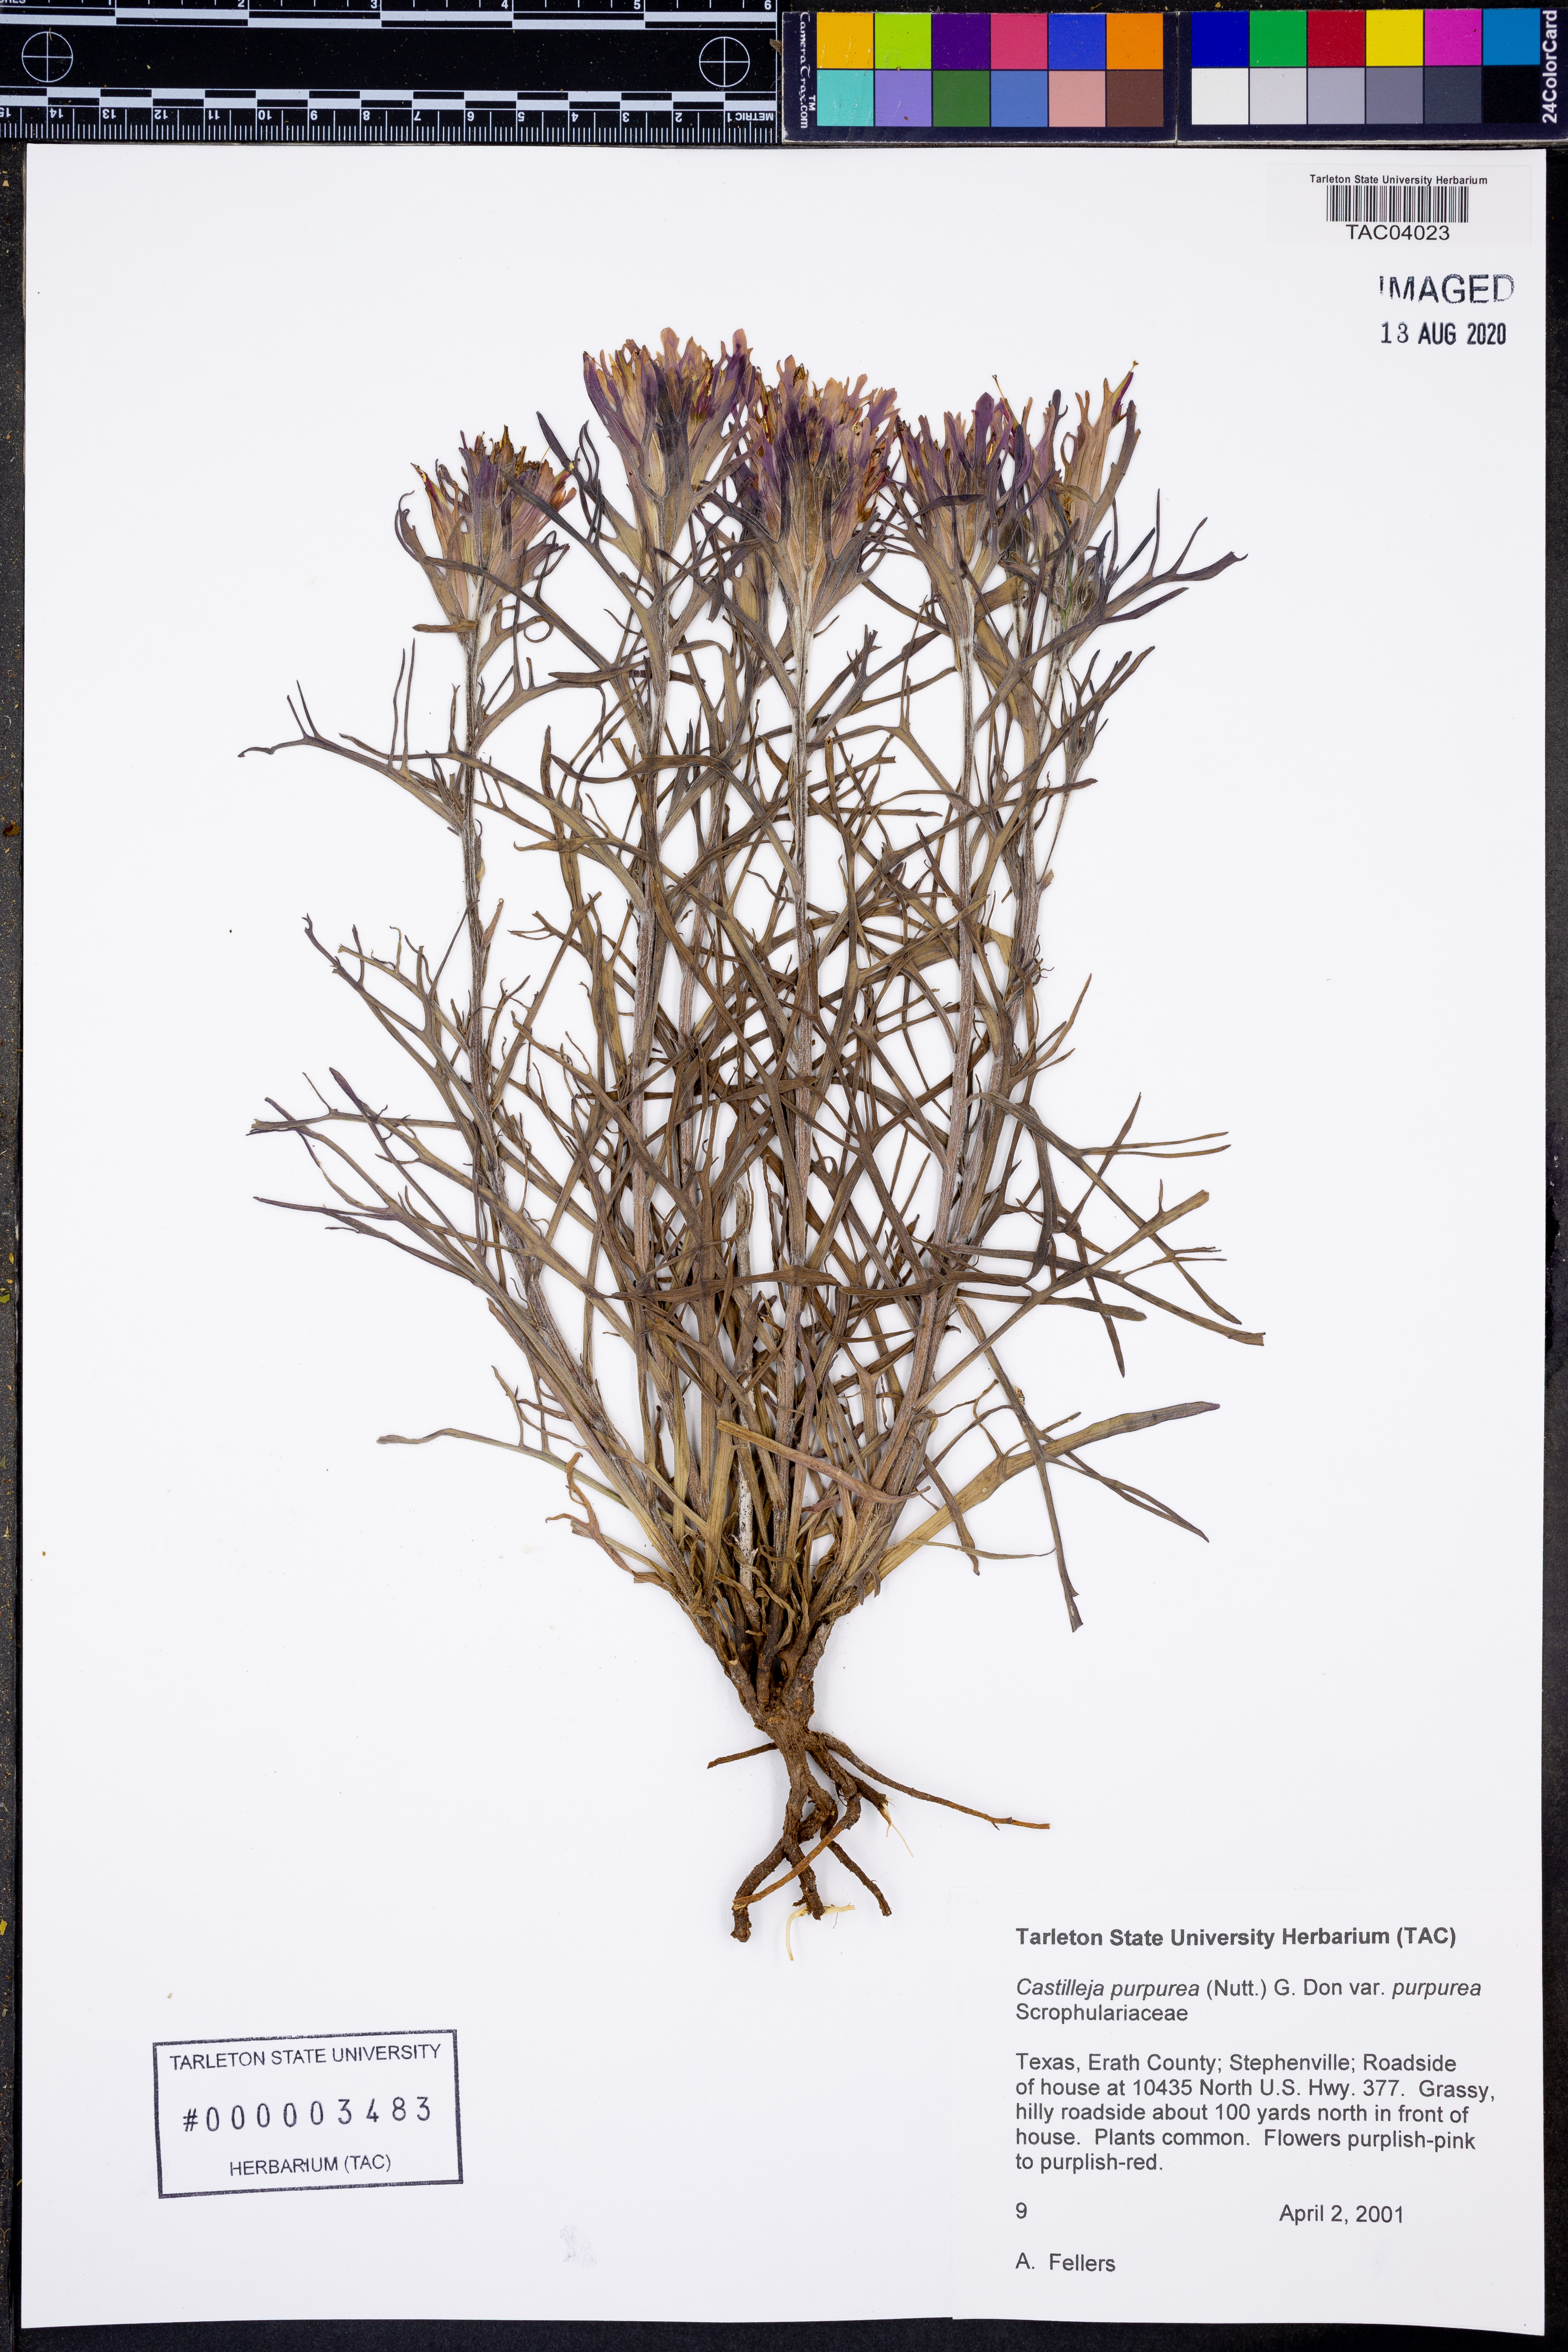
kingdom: Plantae
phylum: Tracheophyta
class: Magnoliopsida
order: Lamiales
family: Orobanchaceae
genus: Castilleja
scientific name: Castilleja purpurea
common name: Plains paintbrush
